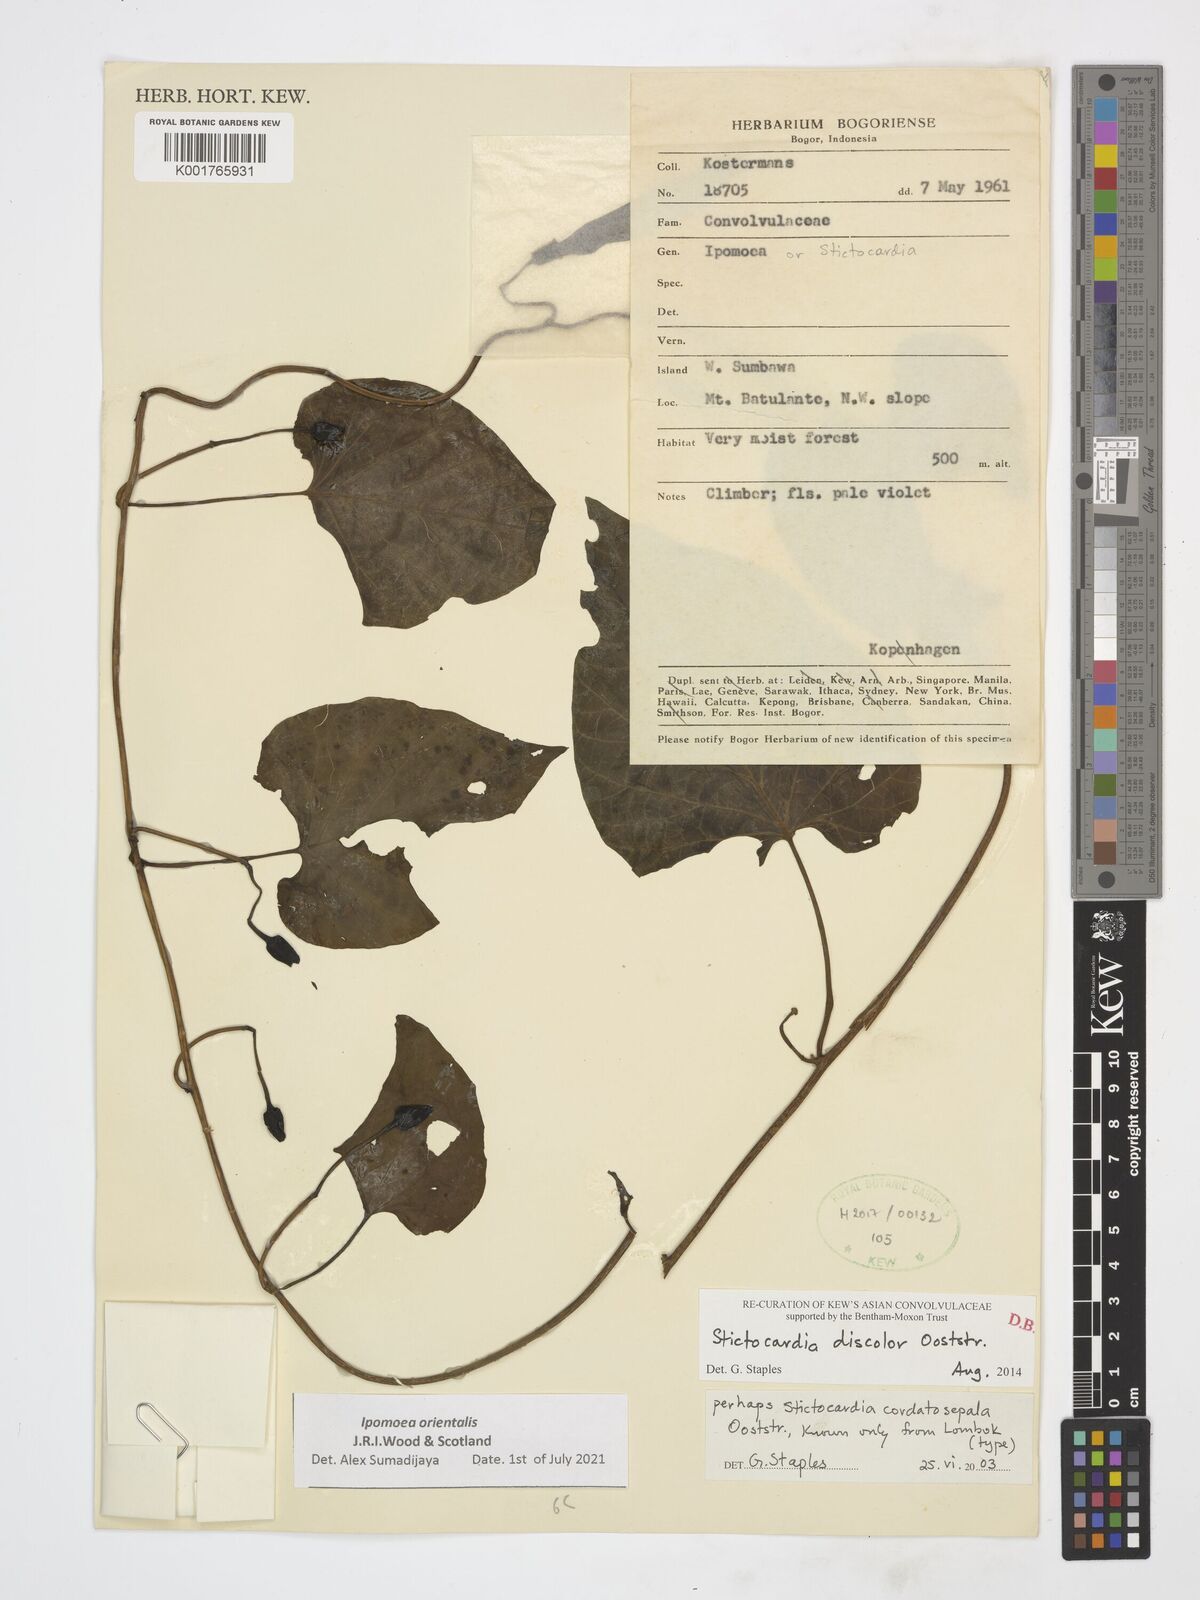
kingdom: Plantae
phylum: Tracheophyta
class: Magnoliopsida
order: Solanales
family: Convolvulaceae
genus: Stictocardia
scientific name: Stictocardia discolor
